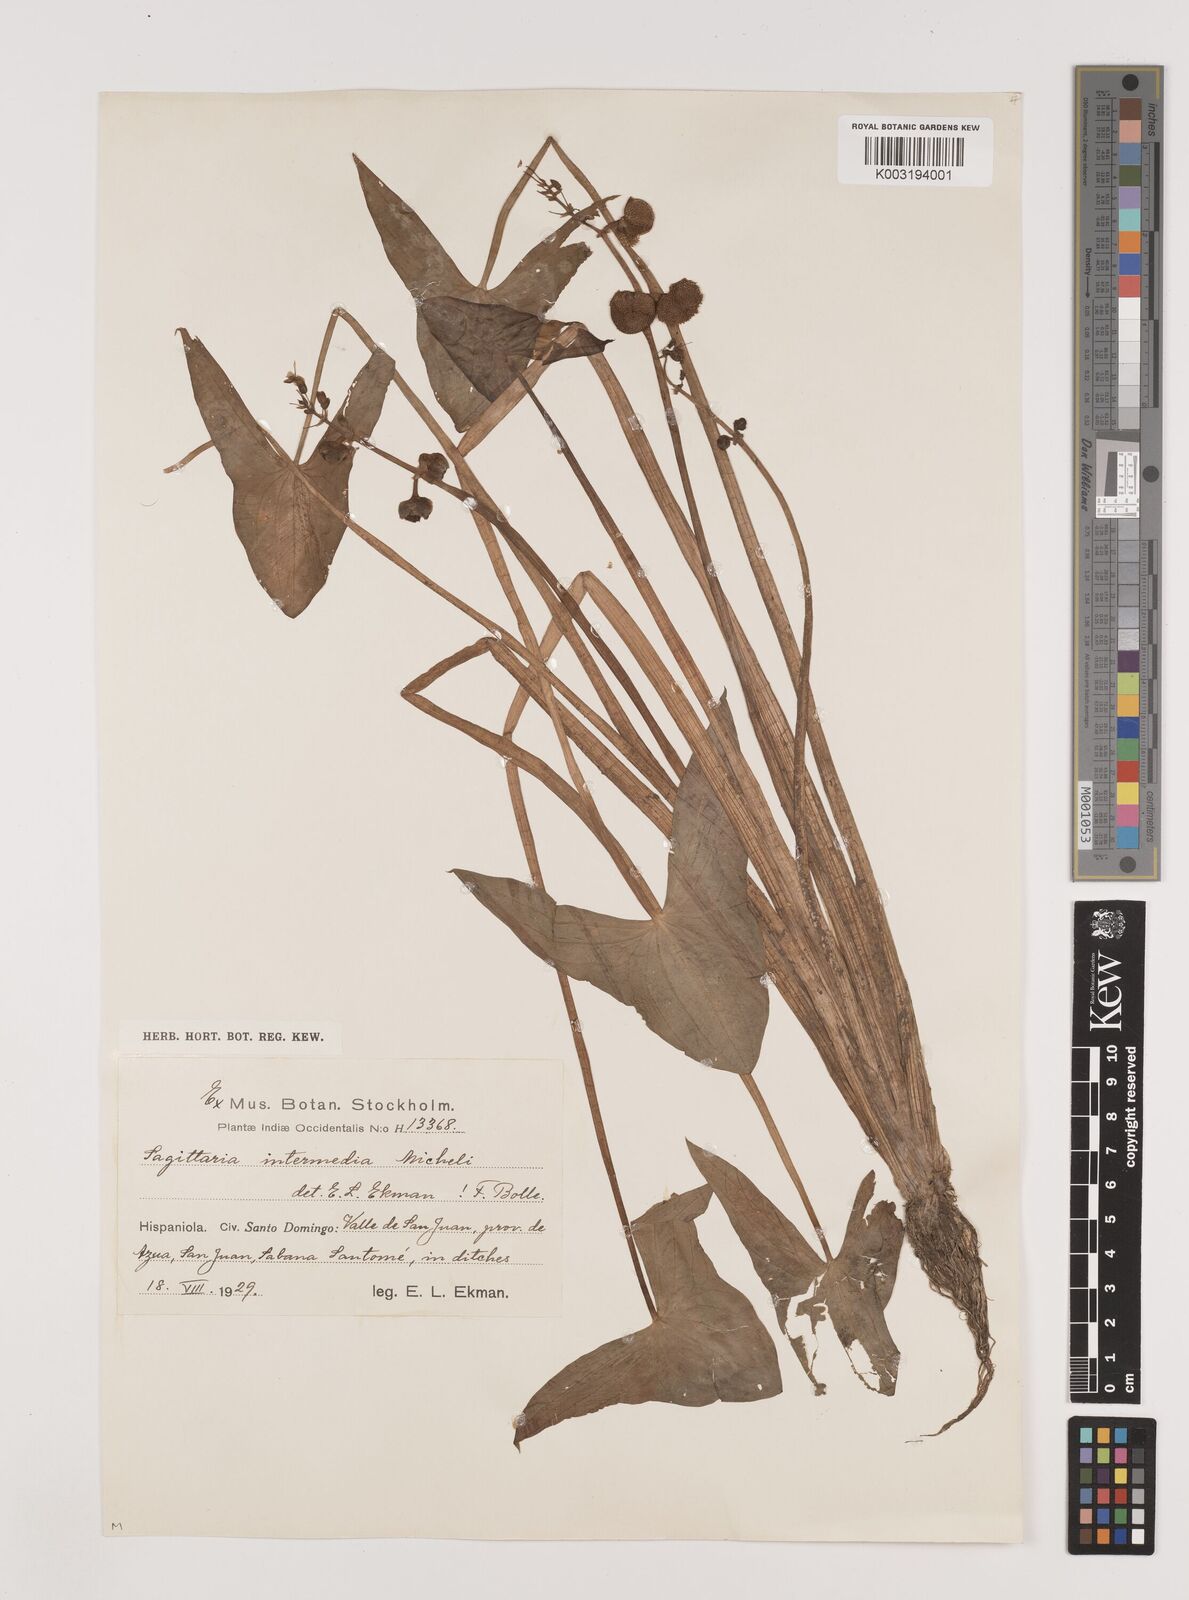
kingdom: Plantae
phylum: Tracheophyta
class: Liliopsida
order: Alismatales
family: Alismataceae
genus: Sagittaria
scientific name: Sagittaria intermedia
